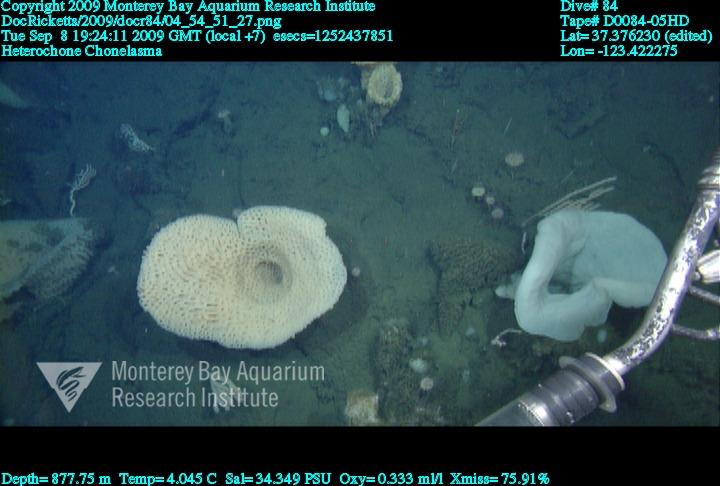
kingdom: Animalia
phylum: Porifera
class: Hexactinellida
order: Sceptrulophora
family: Euretidae
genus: Chonelasma
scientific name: Chonelasma
